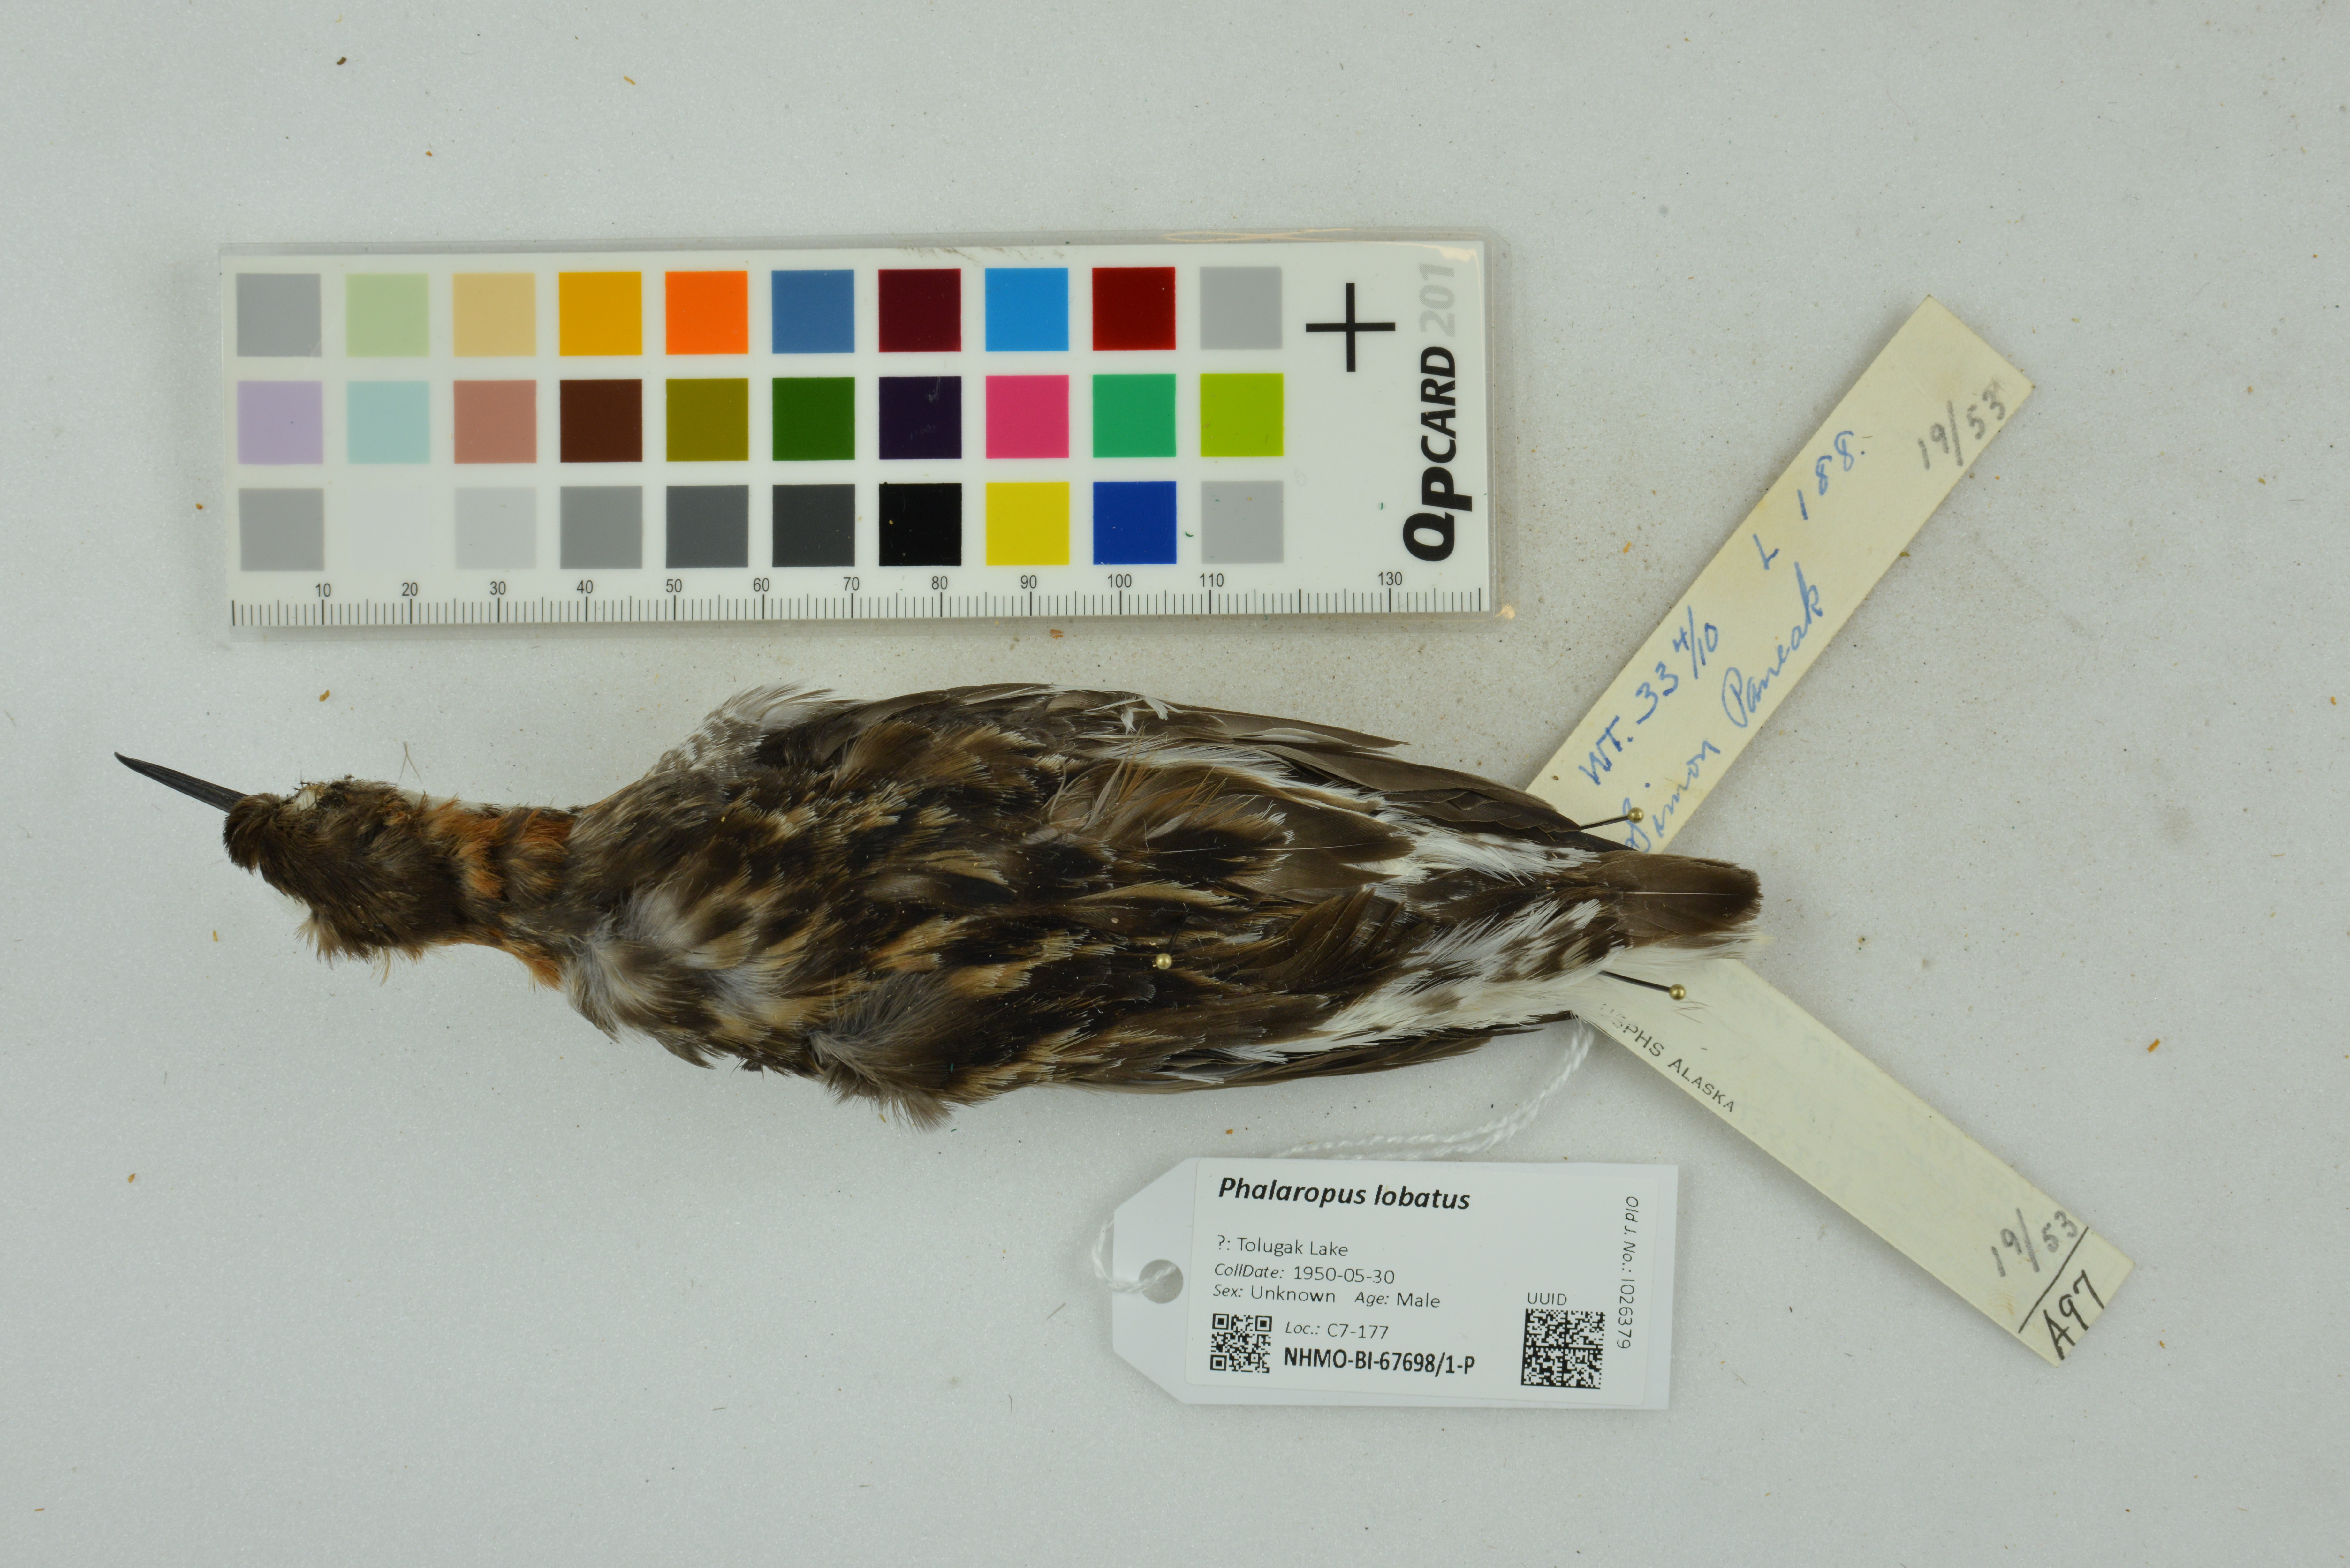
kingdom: Animalia
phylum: Chordata
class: Aves
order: Charadriiformes
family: Scolopacidae
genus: Phalaropus
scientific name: Phalaropus lobatus
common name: Red-necked phalarope
